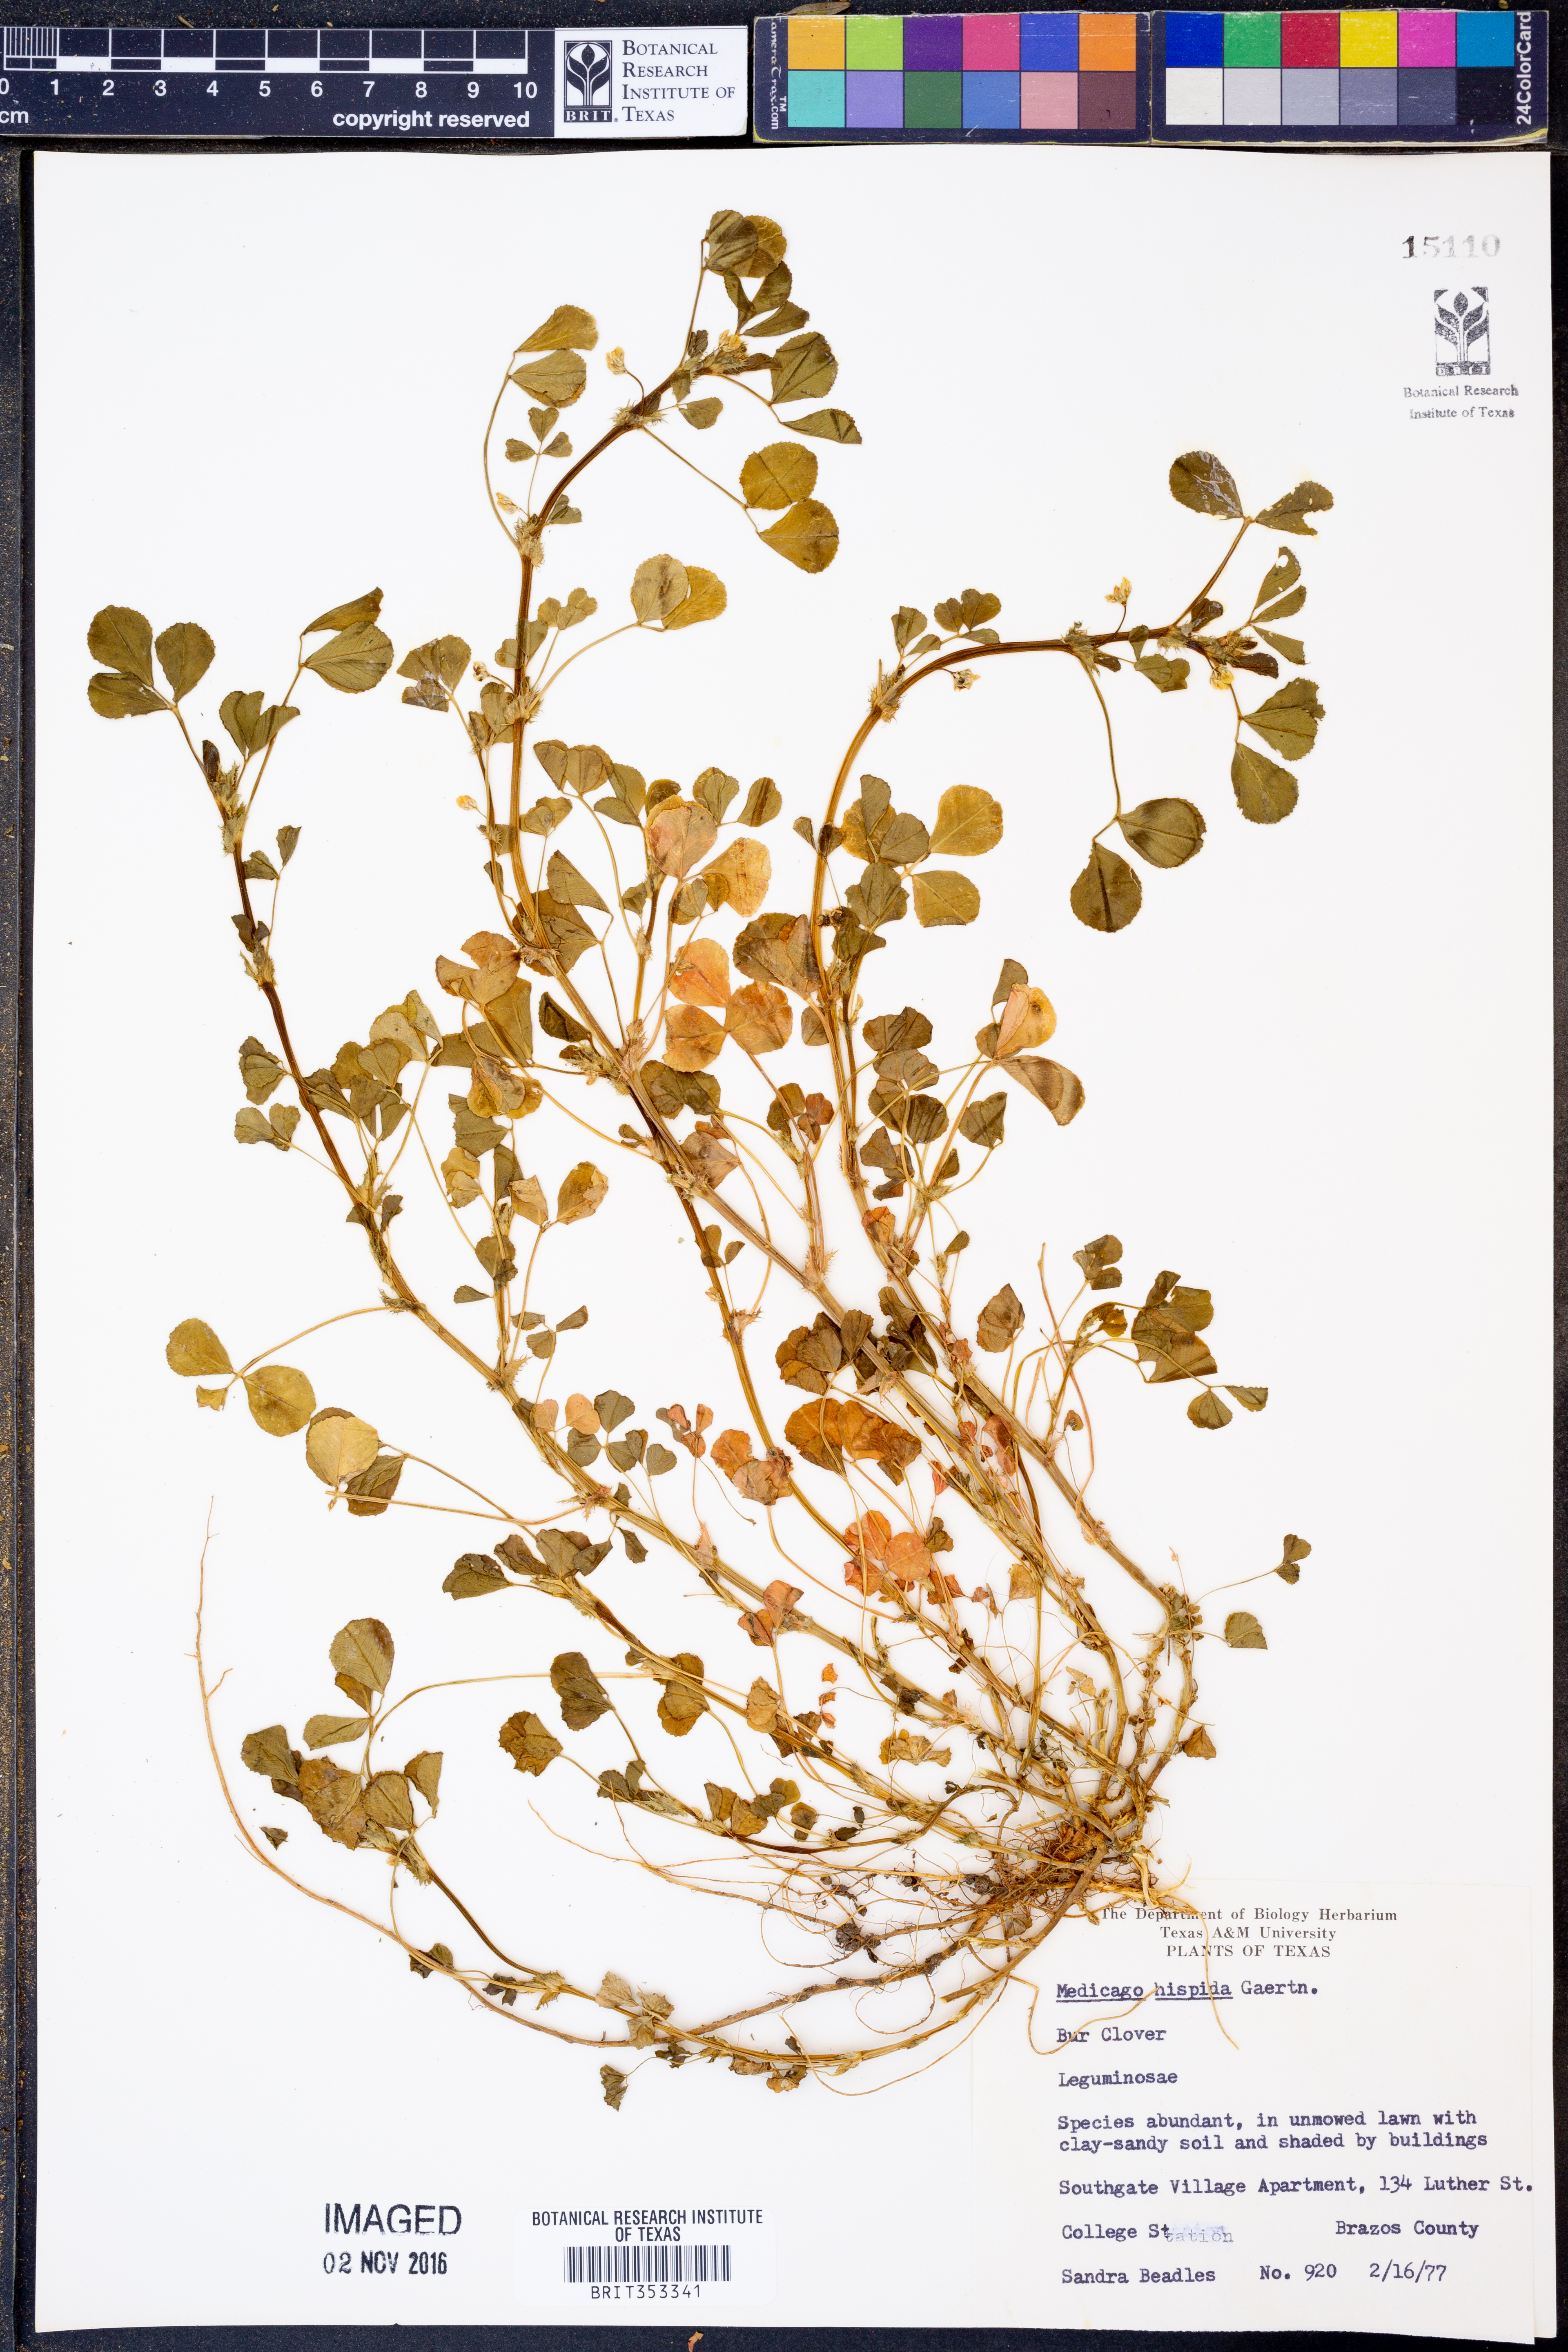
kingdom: Plantae
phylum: Tracheophyta
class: Magnoliopsida
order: Fabales
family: Fabaceae
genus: Medicago
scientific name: Medicago polymorpha
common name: Burclover
